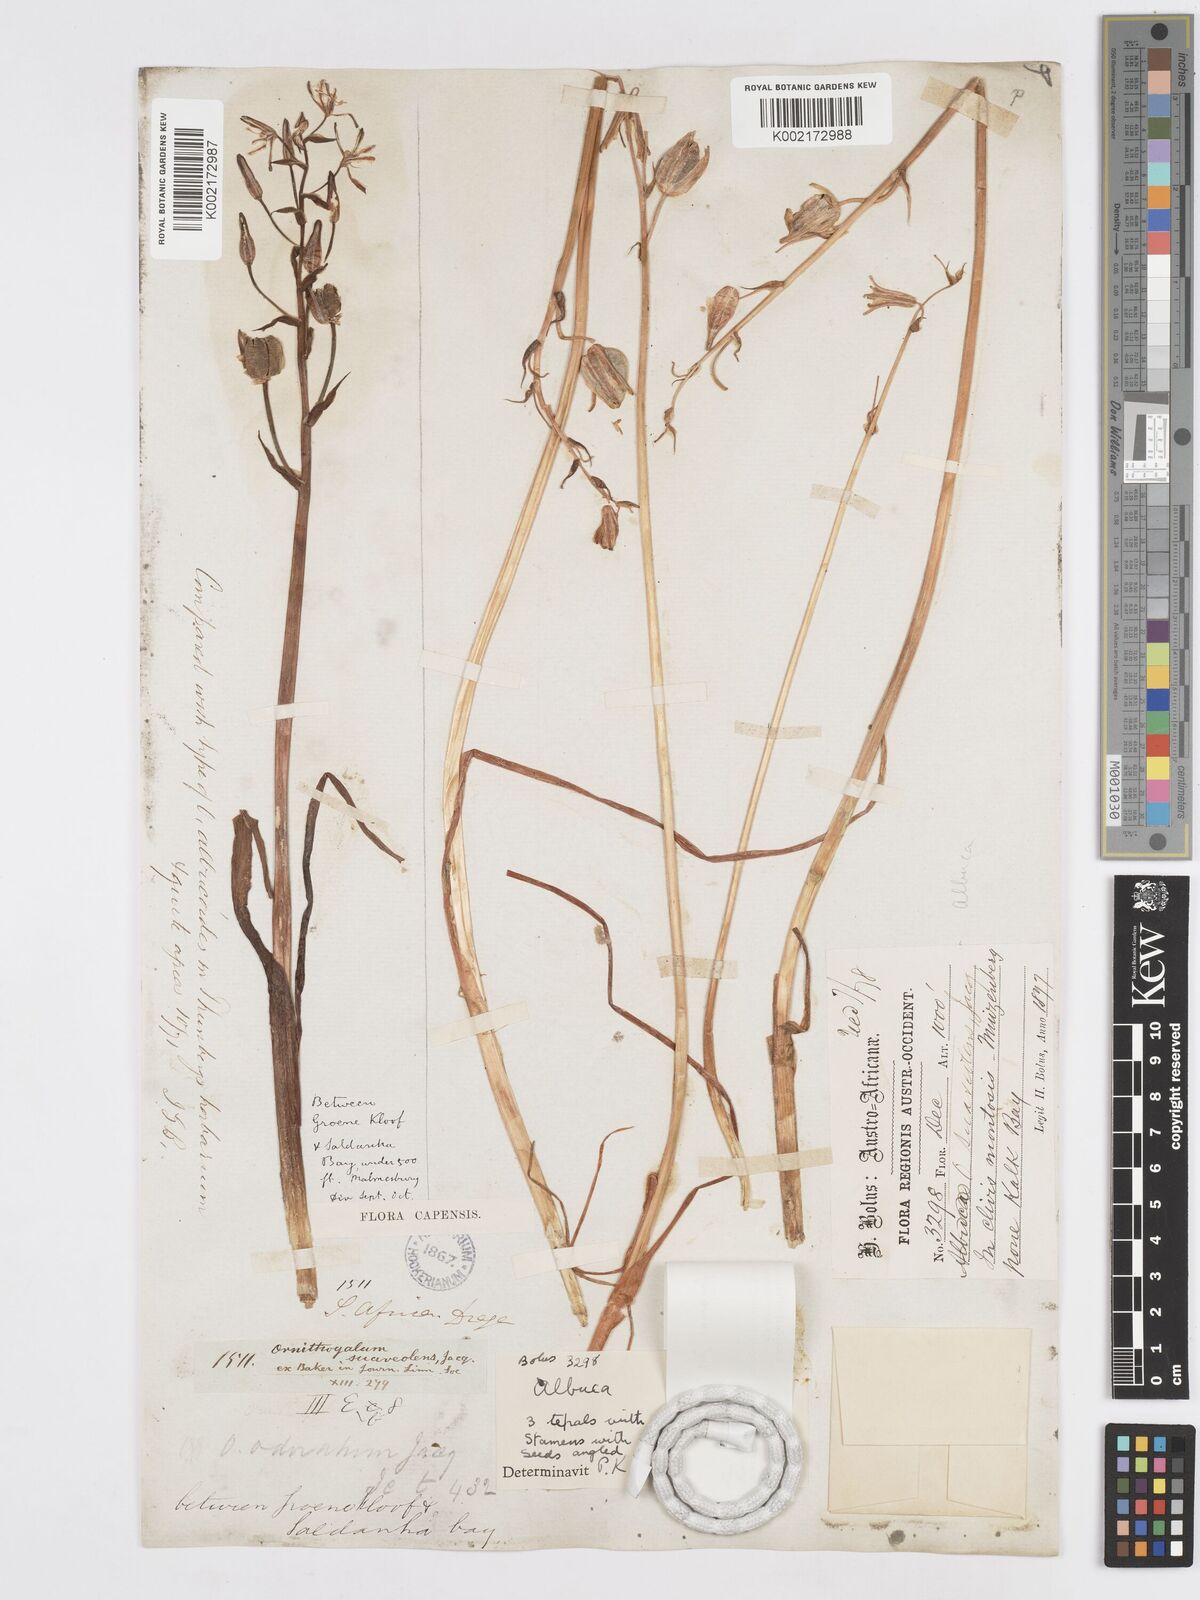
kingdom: Plantae
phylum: Tracheophyta
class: Liliopsida
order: Asparagales
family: Asparagaceae
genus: Albuca
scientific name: Albuca fragrans
